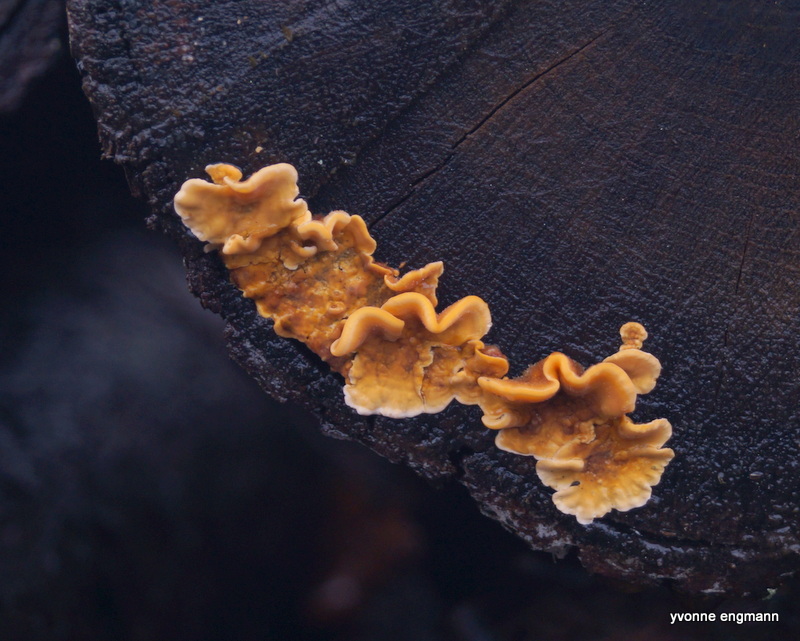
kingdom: Fungi
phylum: Basidiomycota
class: Agaricomycetes
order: Russulales
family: Stereaceae
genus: Stereum
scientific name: Stereum hirsutum
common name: håret lædersvamp
